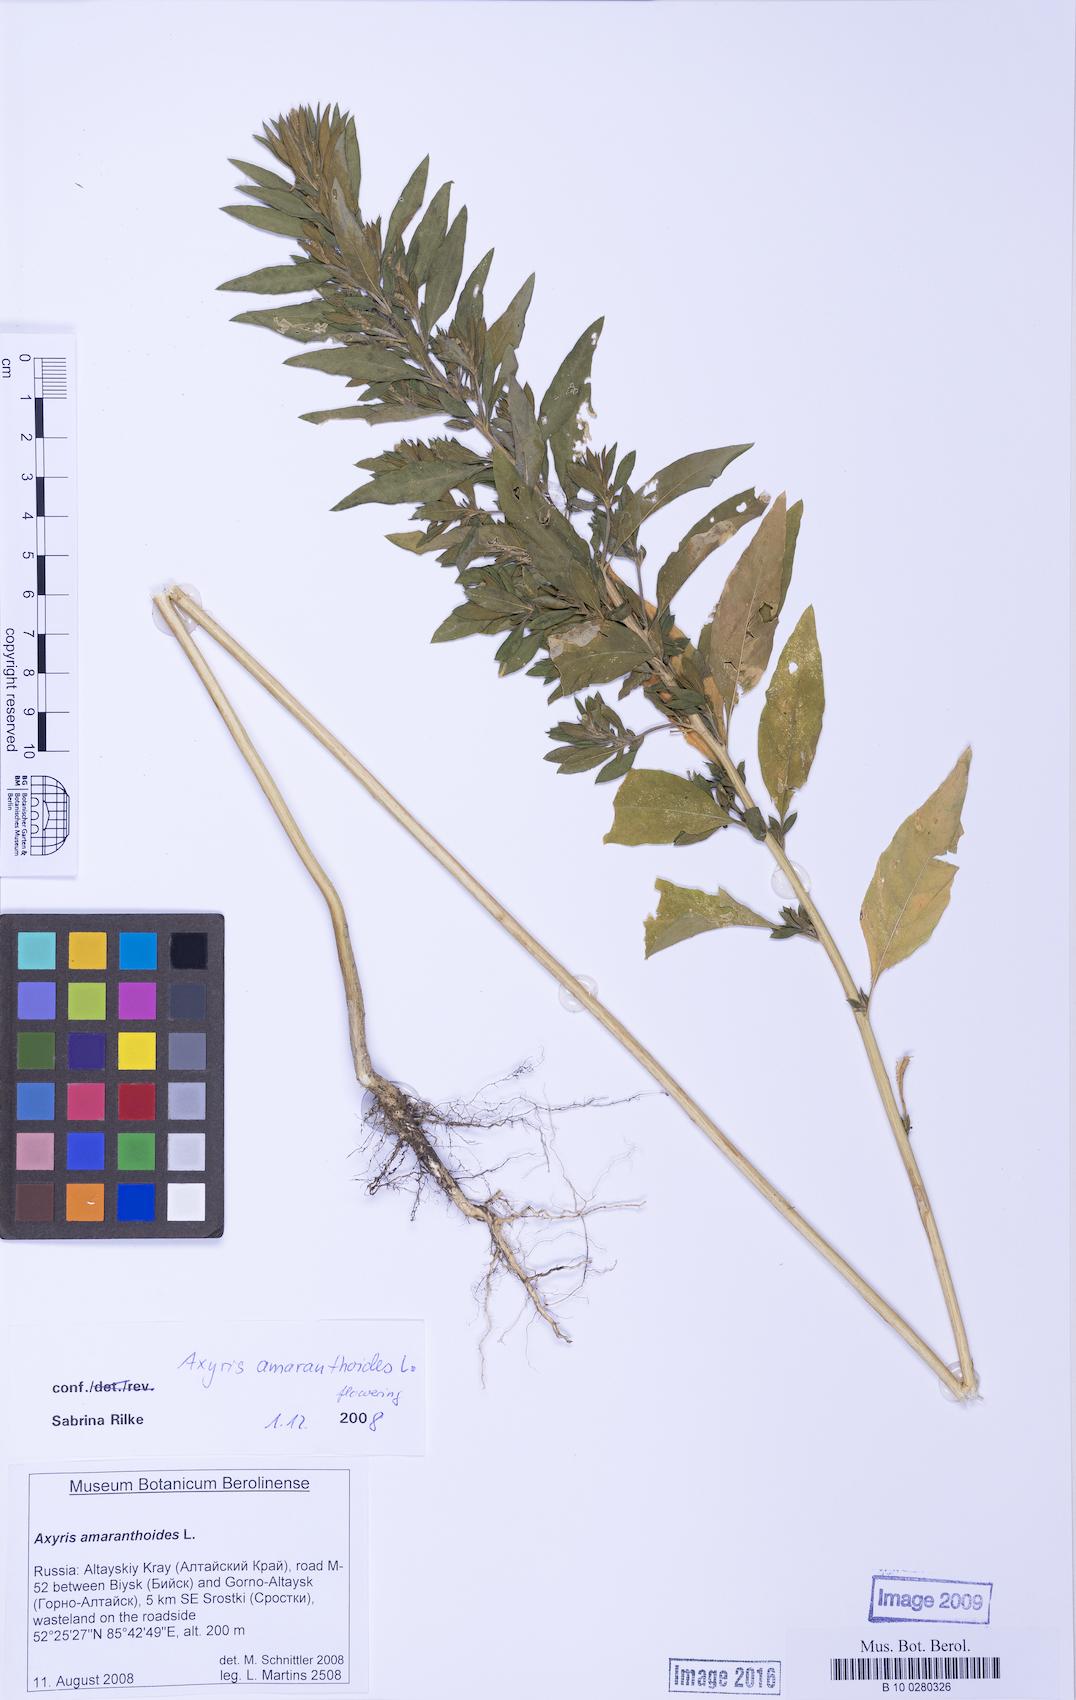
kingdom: Plantae
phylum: Tracheophyta
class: Magnoliopsida
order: Caryophyllales
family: Amaranthaceae
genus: Axyris
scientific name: Axyris amaranthoides
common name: Russian pigweed
